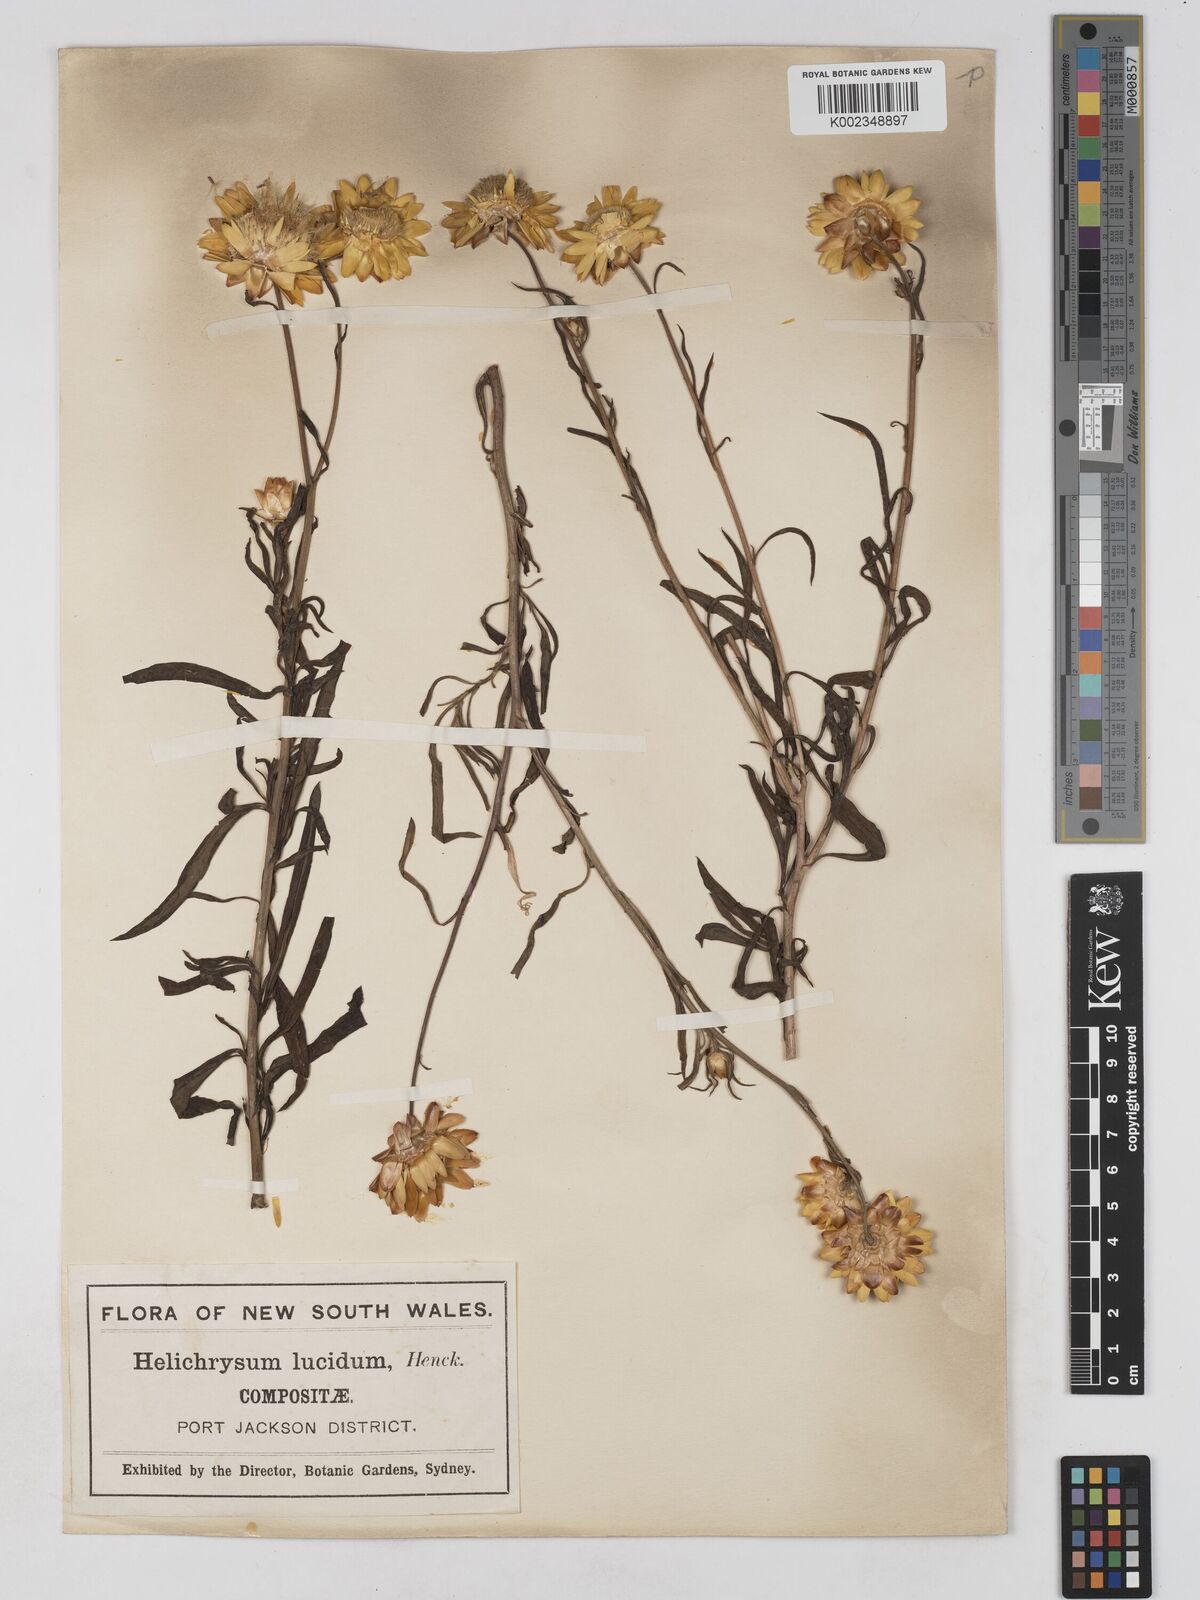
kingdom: Plantae
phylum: Tracheophyta
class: Magnoliopsida
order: Asterales
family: Asteraceae
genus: Xerochrysum
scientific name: Xerochrysum bracteatum
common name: Bracted strawflower
